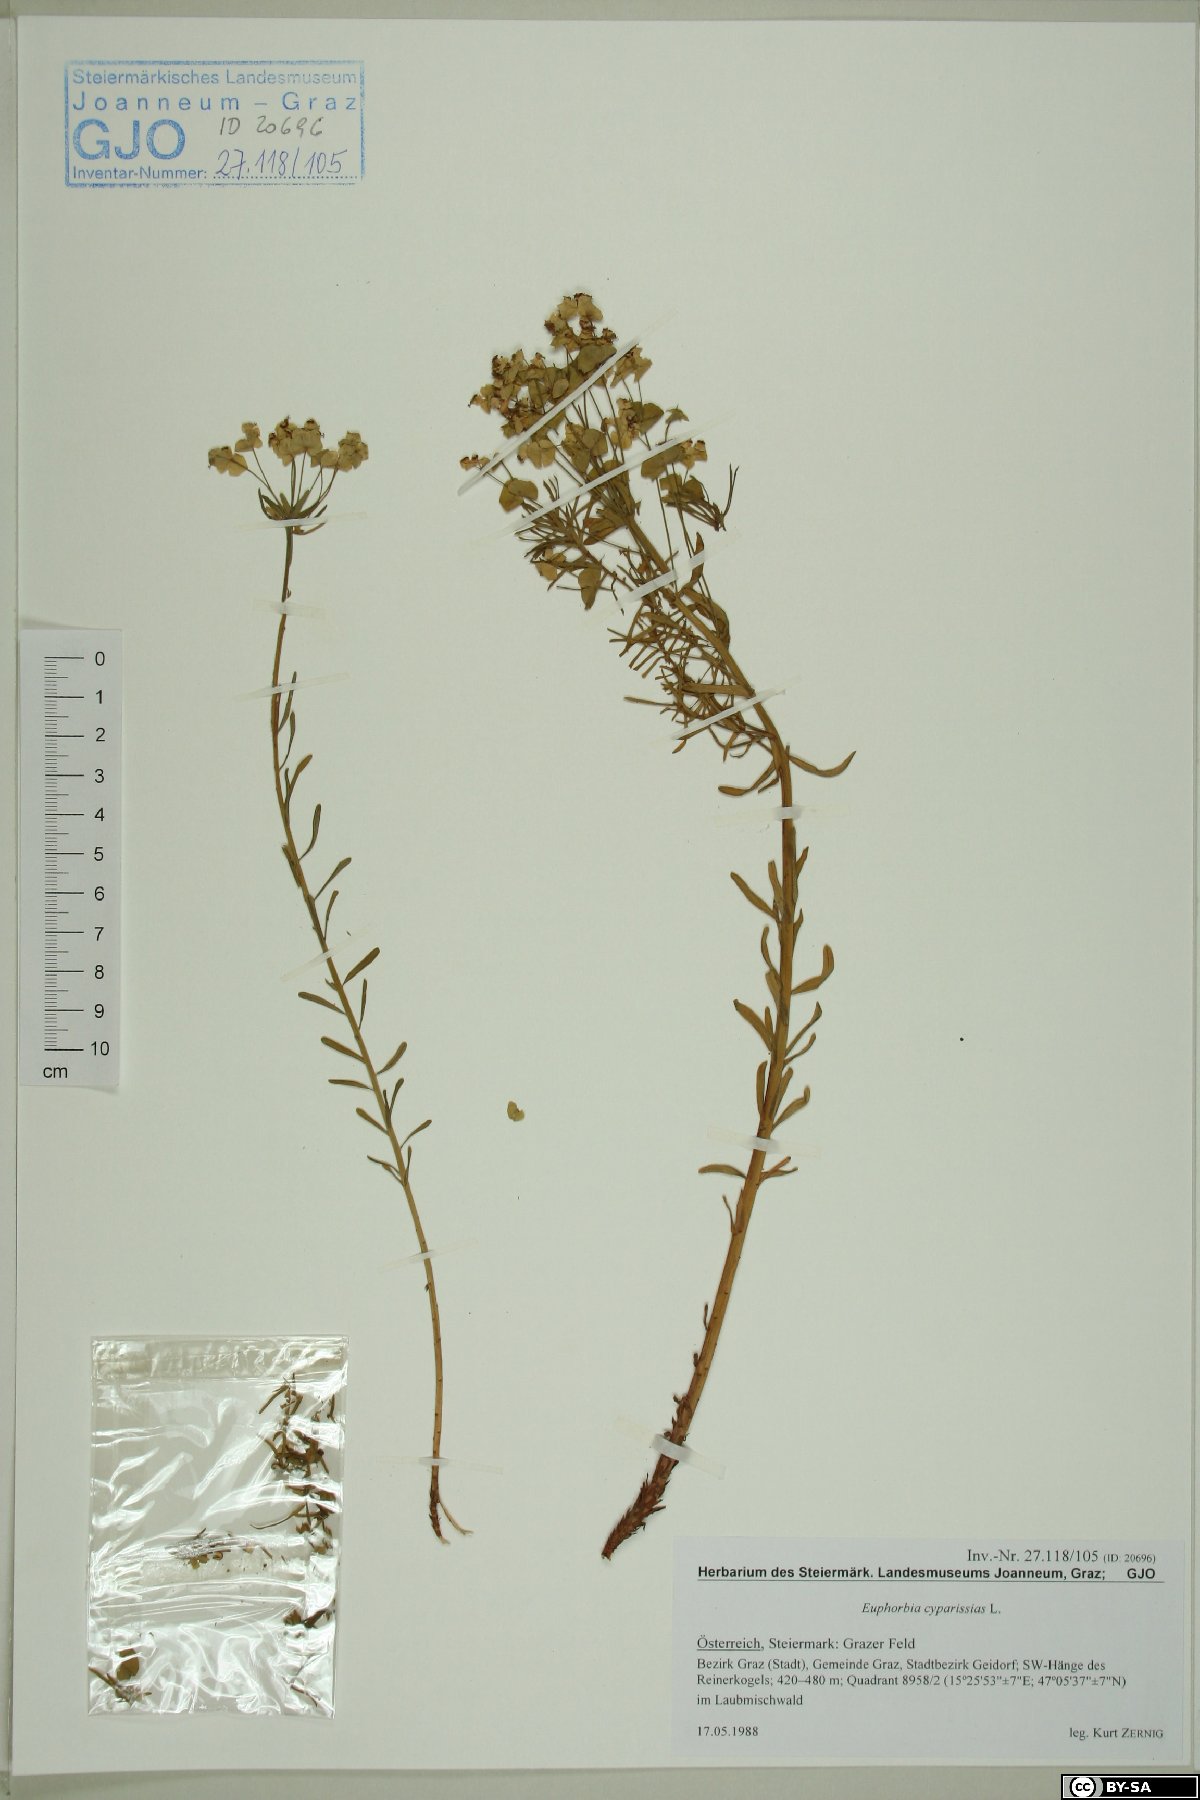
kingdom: Plantae
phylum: Tracheophyta
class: Magnoliopsida
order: Malpighiales
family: Euphorbiaceae
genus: Euphorbia
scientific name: Euphorbia cyparissias
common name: Cypress spurge
